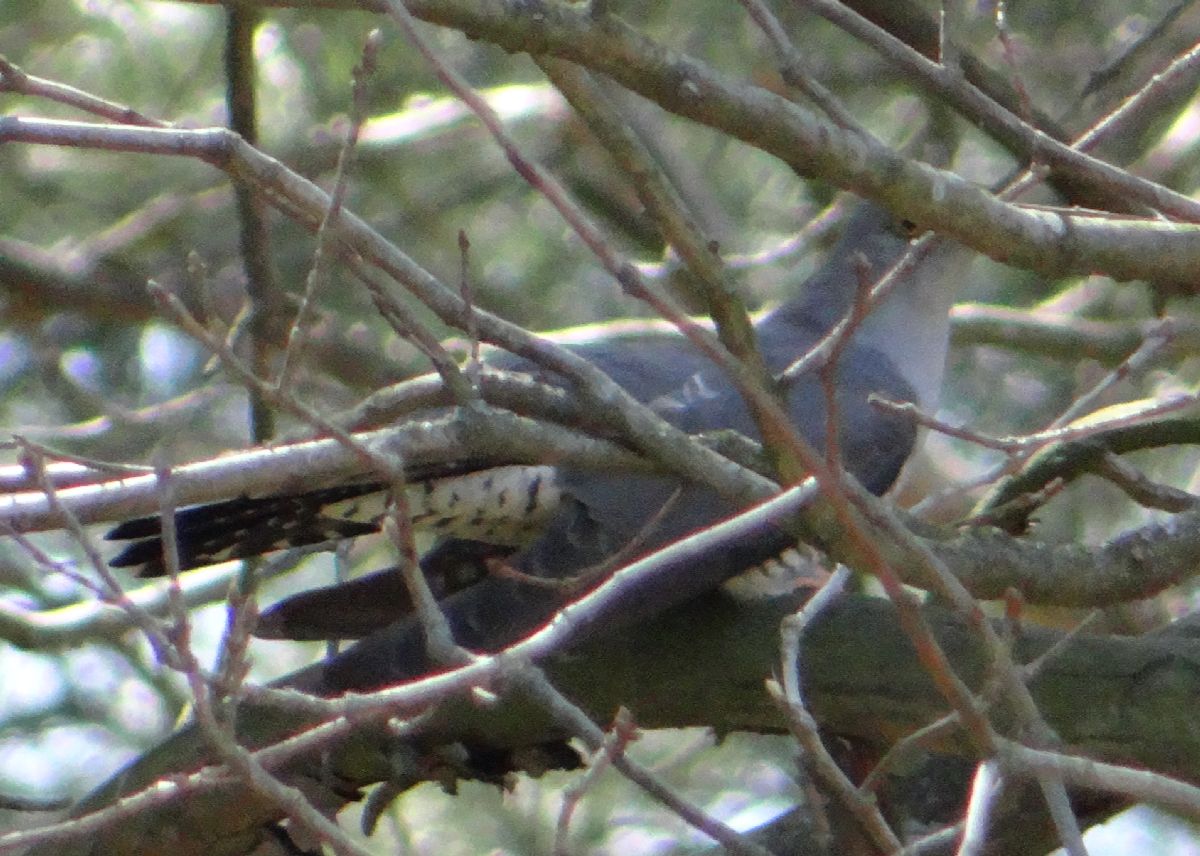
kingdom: Animalia
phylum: Chordata
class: Aves
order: Cuculiformes
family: Cuculidae
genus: Cuculus
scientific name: Cuculus canorus
